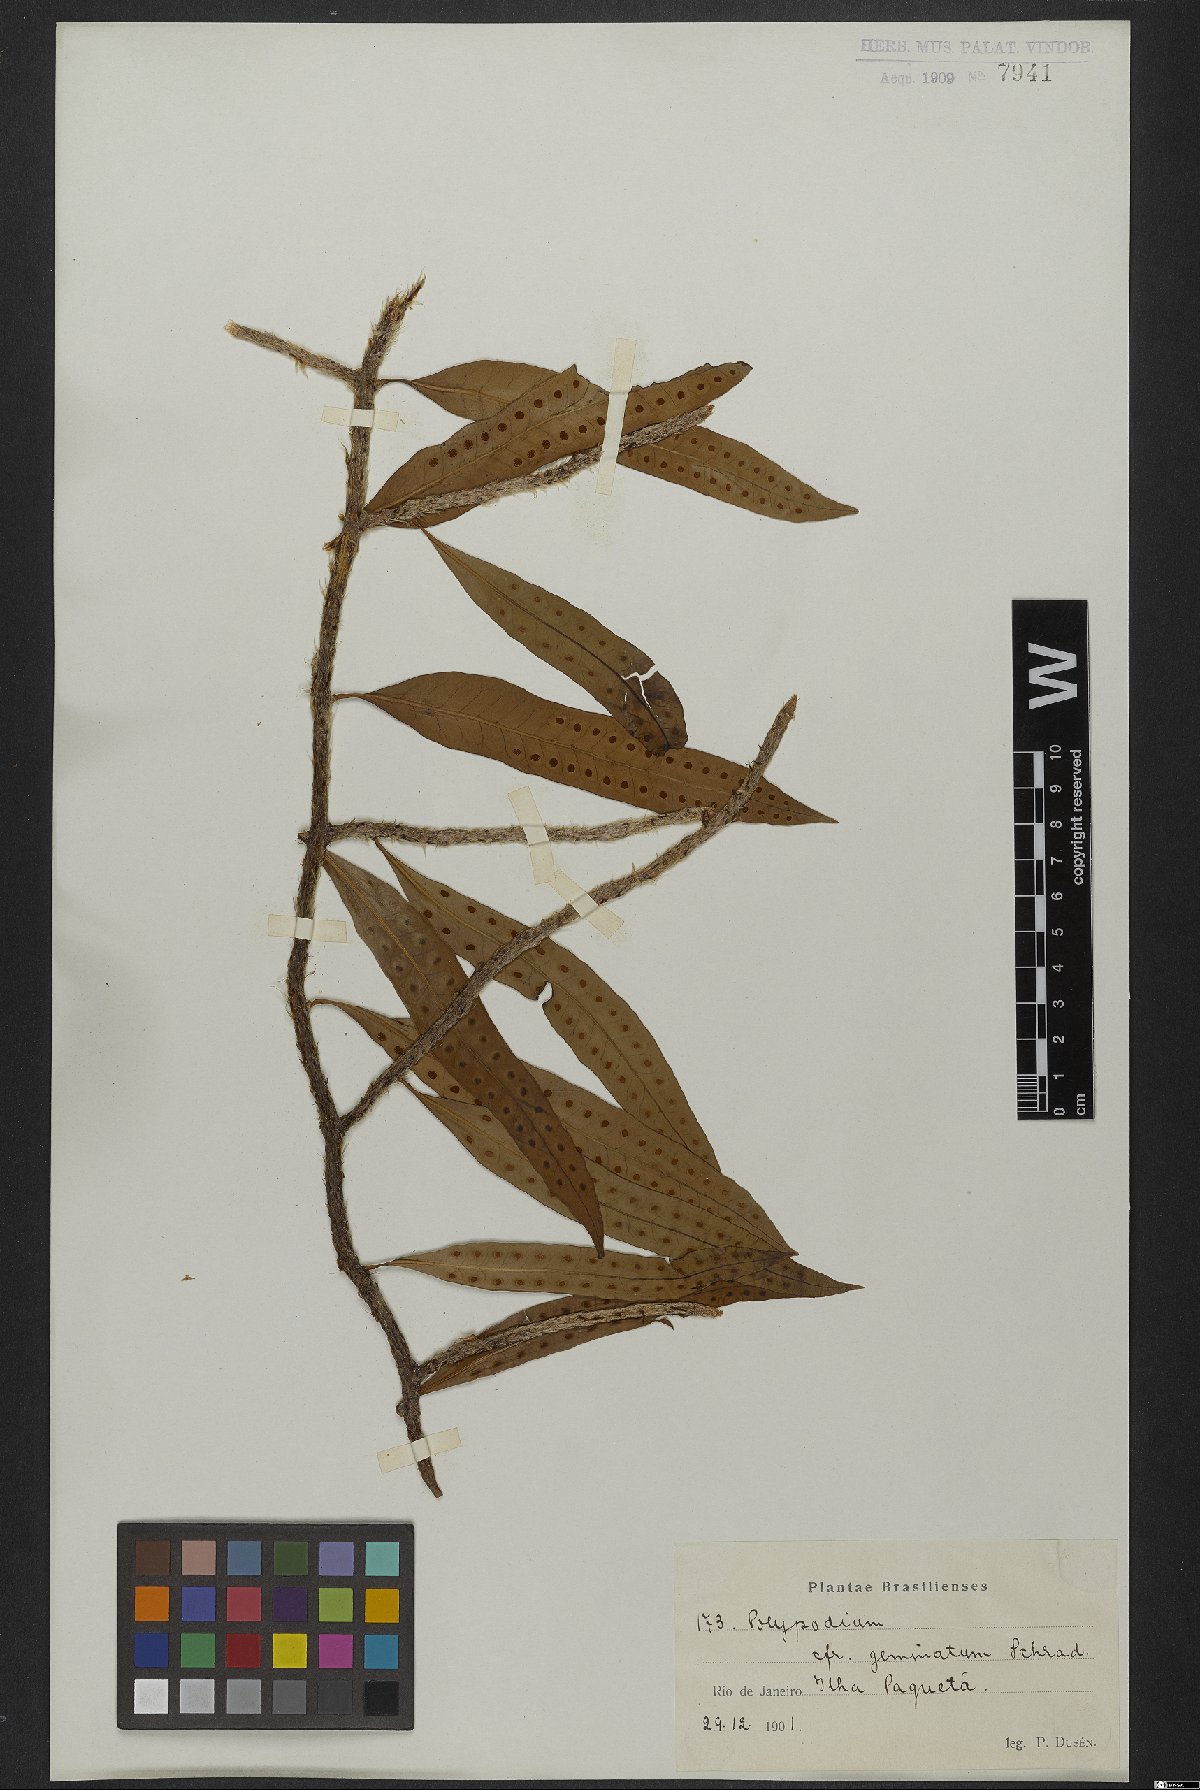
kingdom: Plantae
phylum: Tracheophyta
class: Polypodiopsida
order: Polypodiales
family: Polypodiaceae
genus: Microgramma
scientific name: Microgramma geminata
